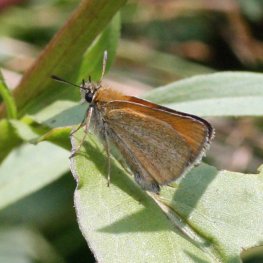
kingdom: Animalia
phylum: Arthropoda
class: Insecta
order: Lepidoptera
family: Hesperiidae
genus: Thymelicus
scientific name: Thymelicus lineola
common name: European Skipper
